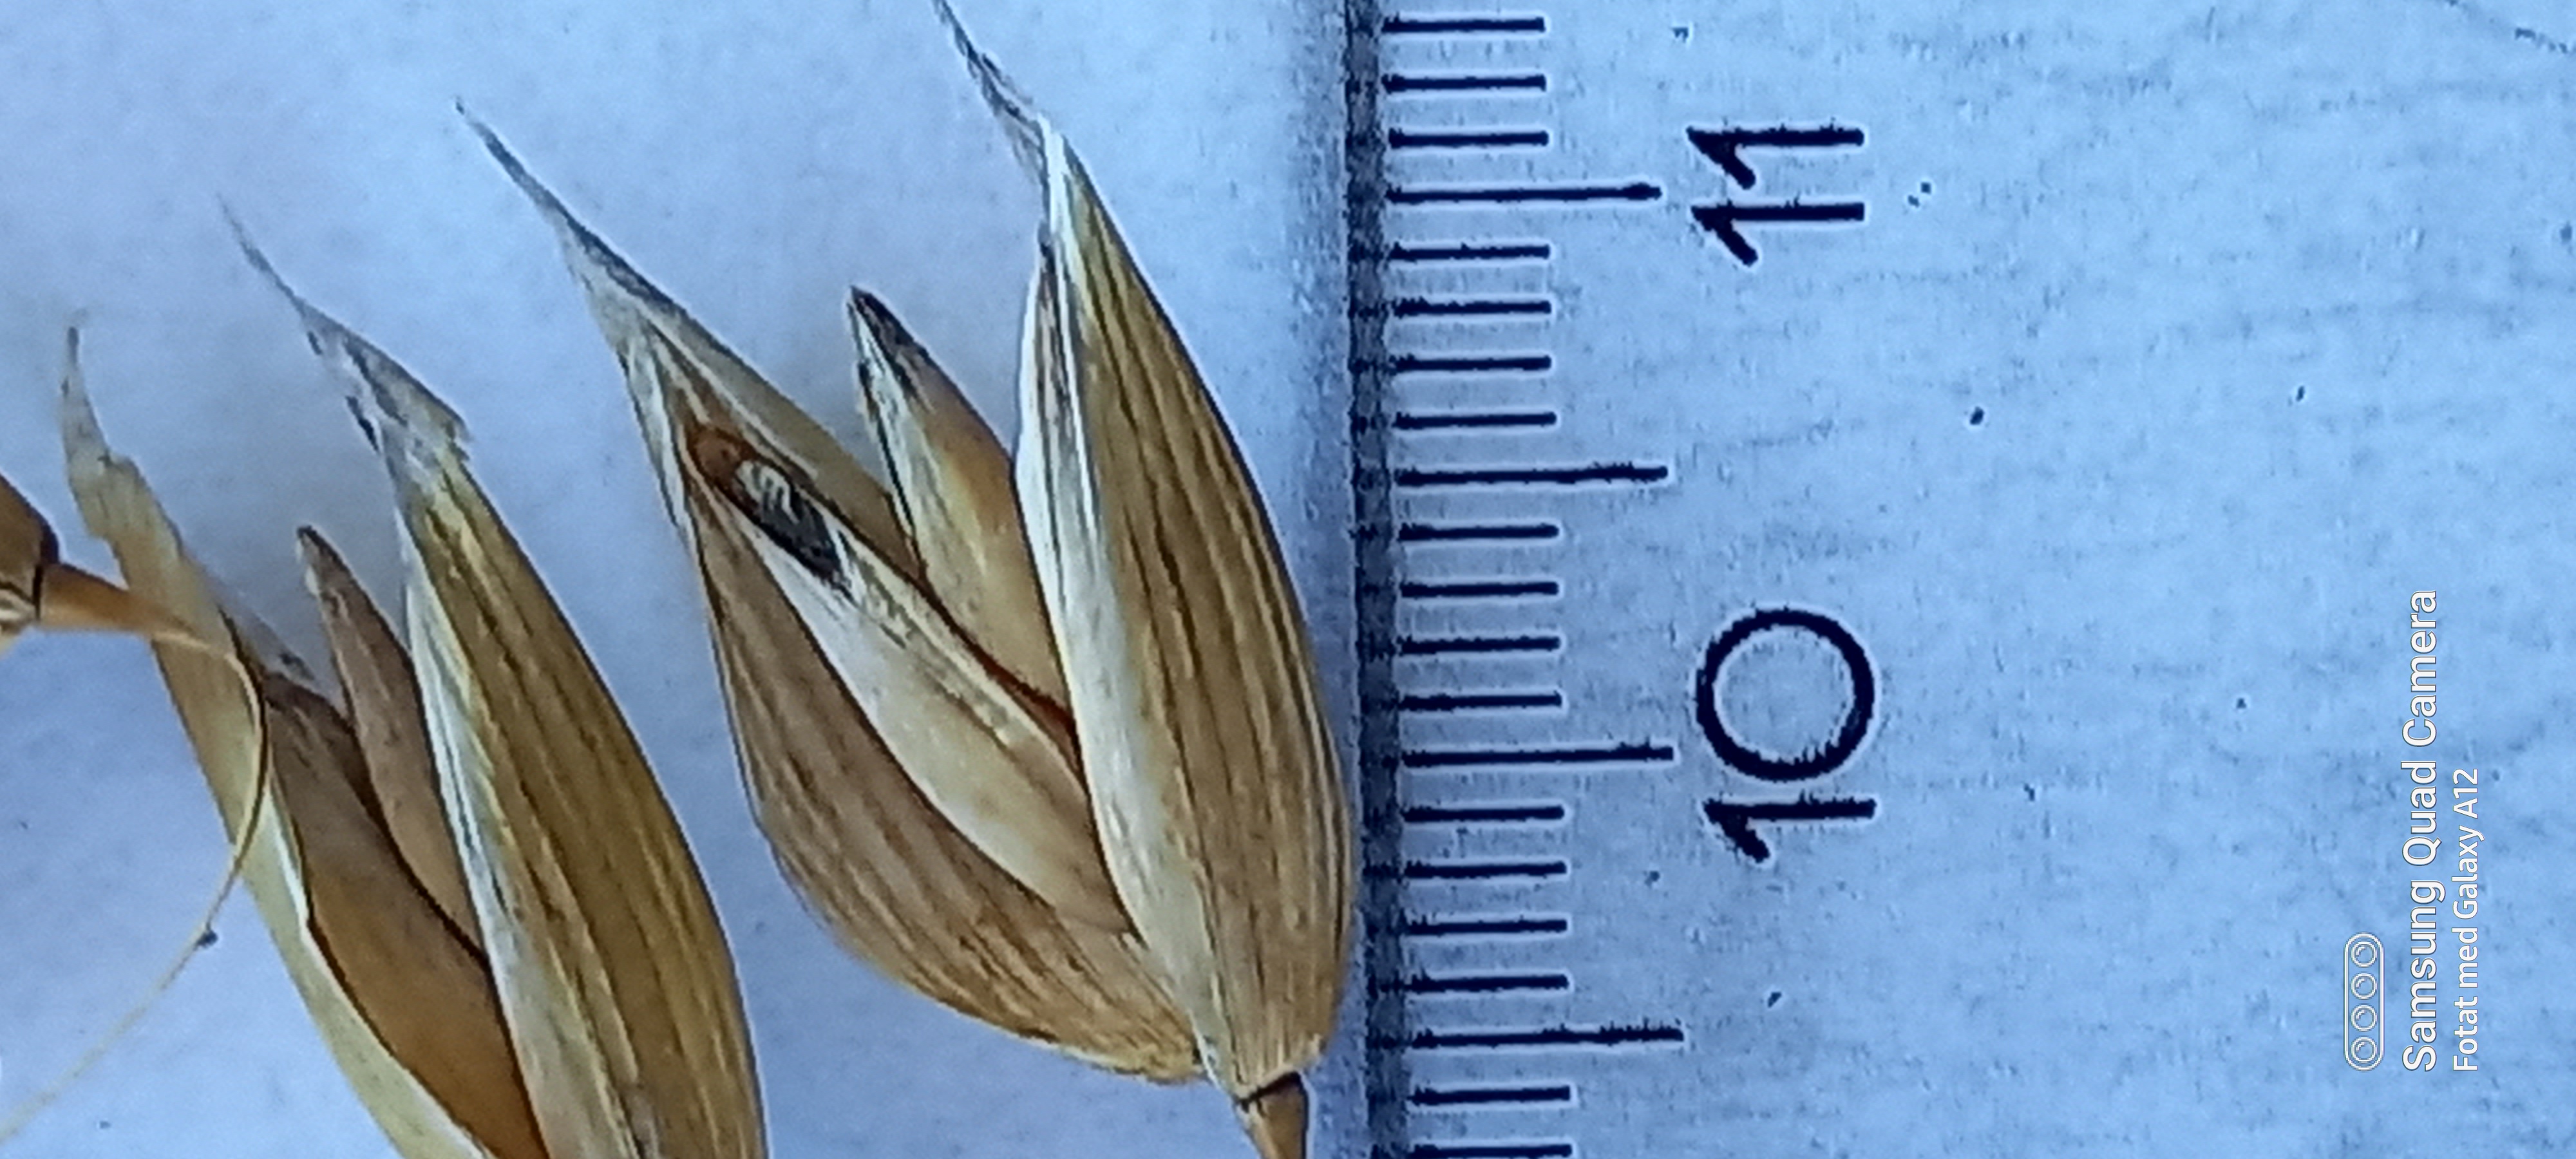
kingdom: Plantae
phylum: Tracheophyta
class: Liliopsida
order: Poales
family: Poaceae
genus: Avena
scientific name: Avena sativa
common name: Oat
